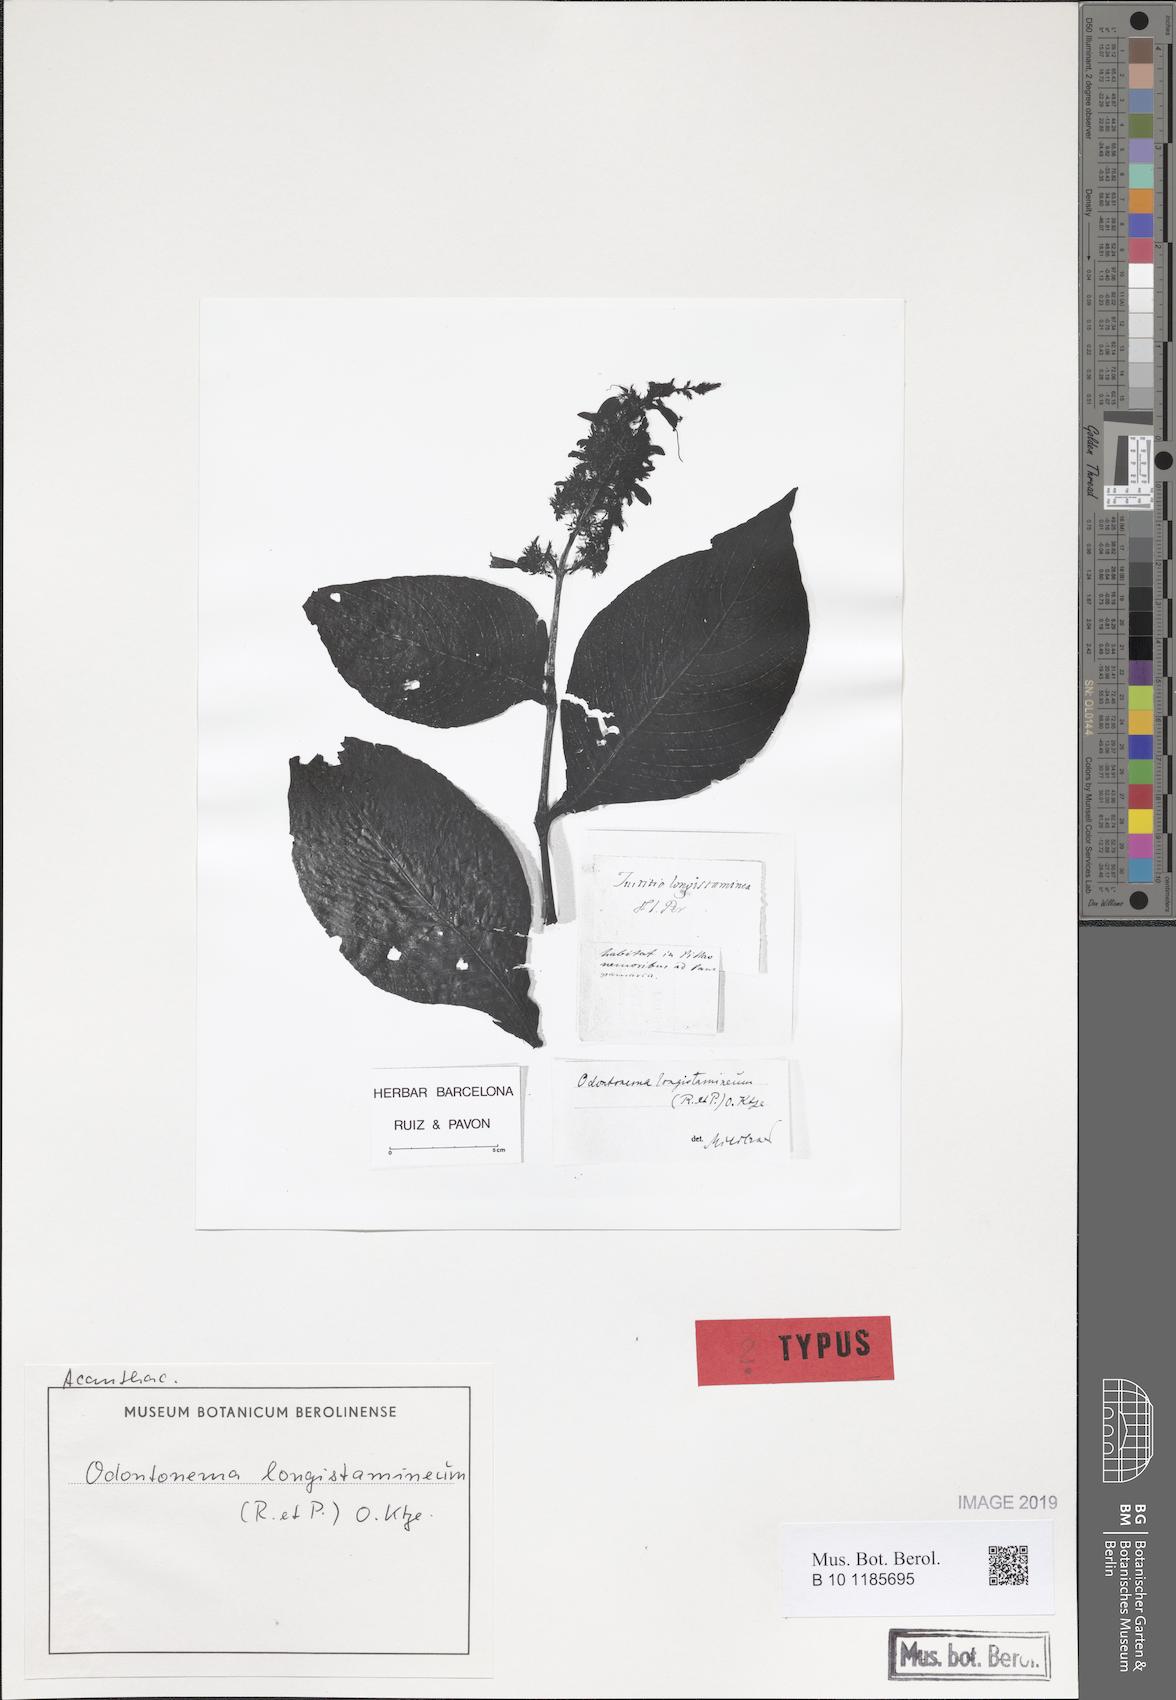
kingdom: Plantae
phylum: Tracheophyta
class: Magnoliopsida
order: Lamiales
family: Acanthaceae
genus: Odontonema
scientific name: Odontonema longistamineum
